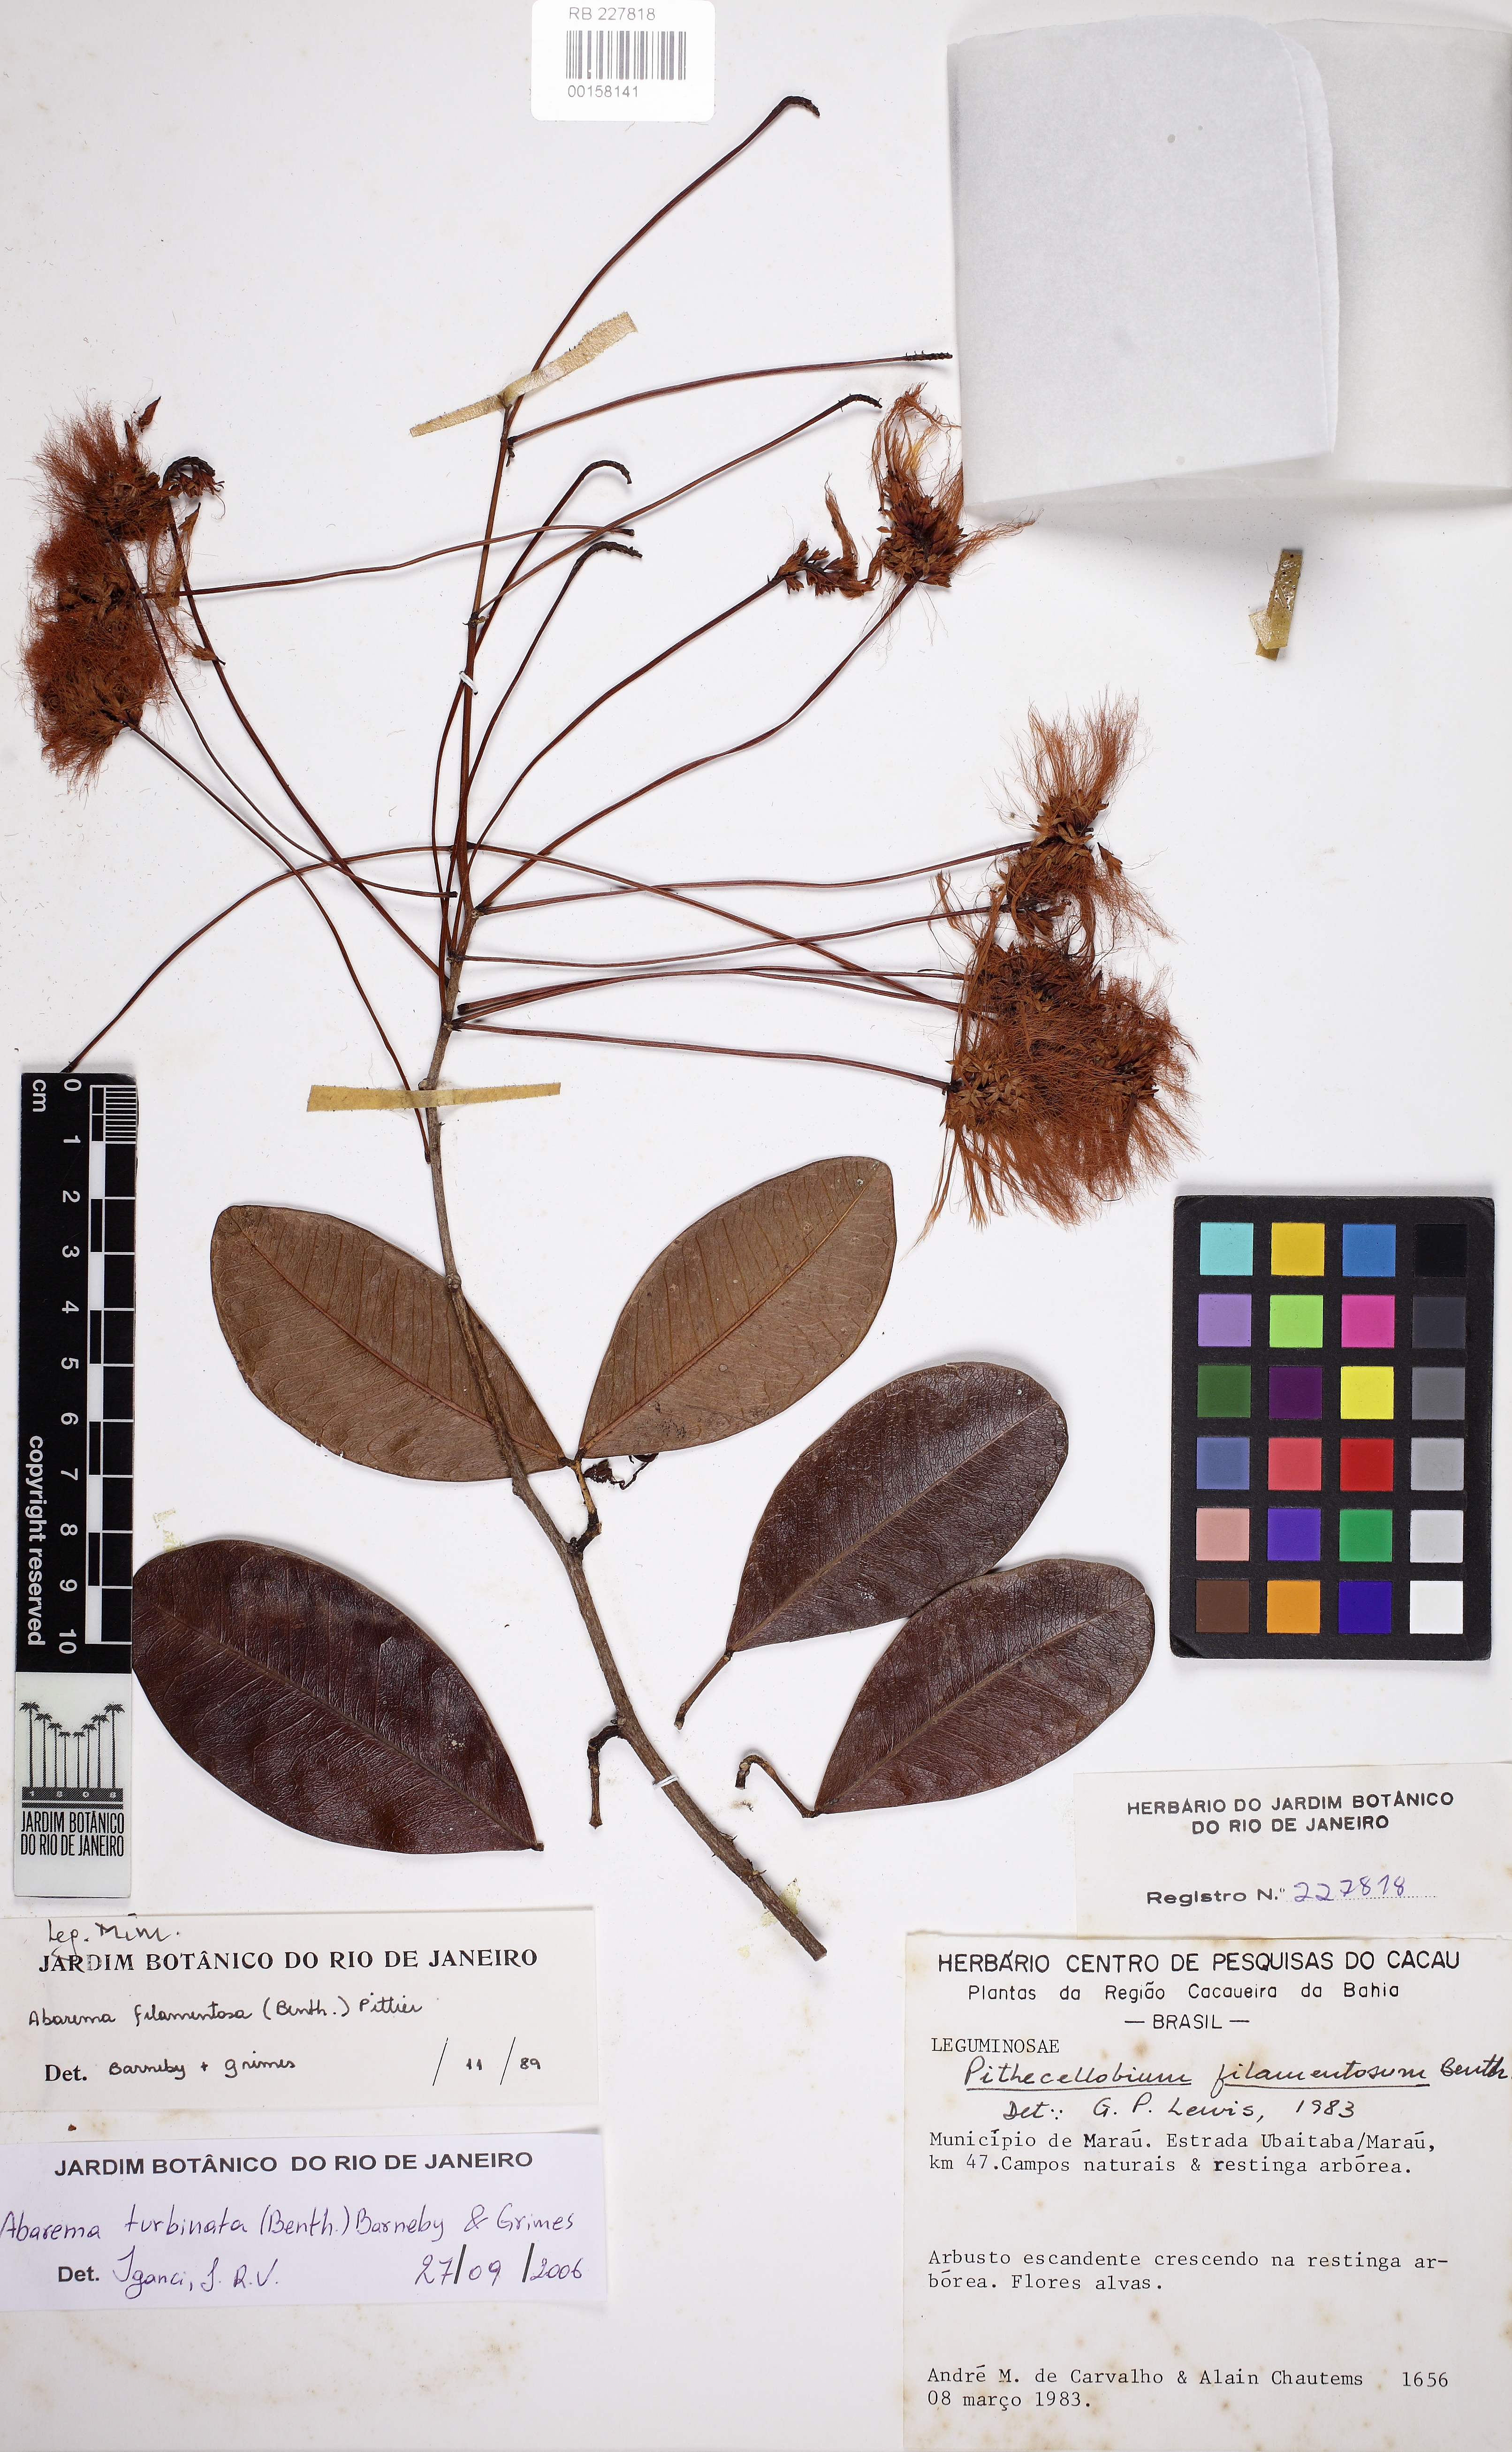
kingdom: Plantae
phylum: Tracheophyta
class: Magnoliopsida
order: Fabales
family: Fabaceae
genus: Jupunba
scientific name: Jupunba turbinata
